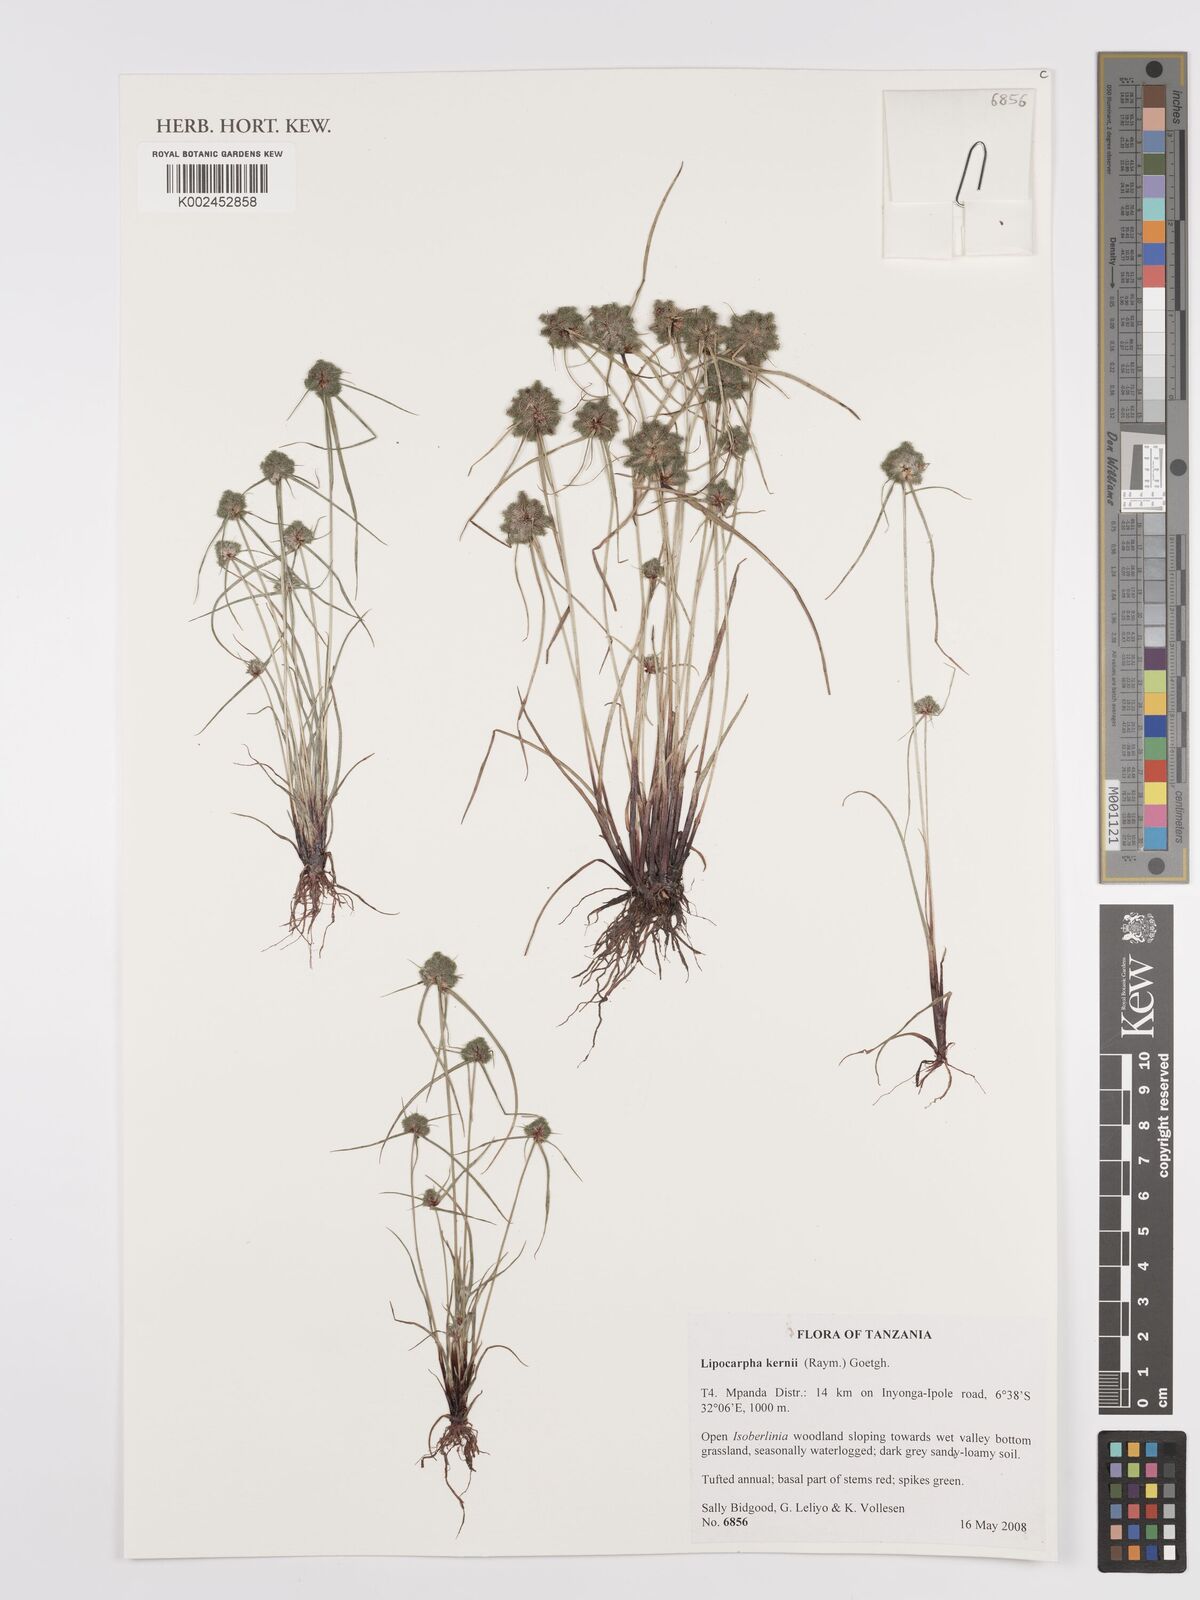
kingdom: Plantae
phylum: Tracheophyta
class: Liliopsida
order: Poales
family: Cyperaceae
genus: Cyperus
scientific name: Cyperus kernii
